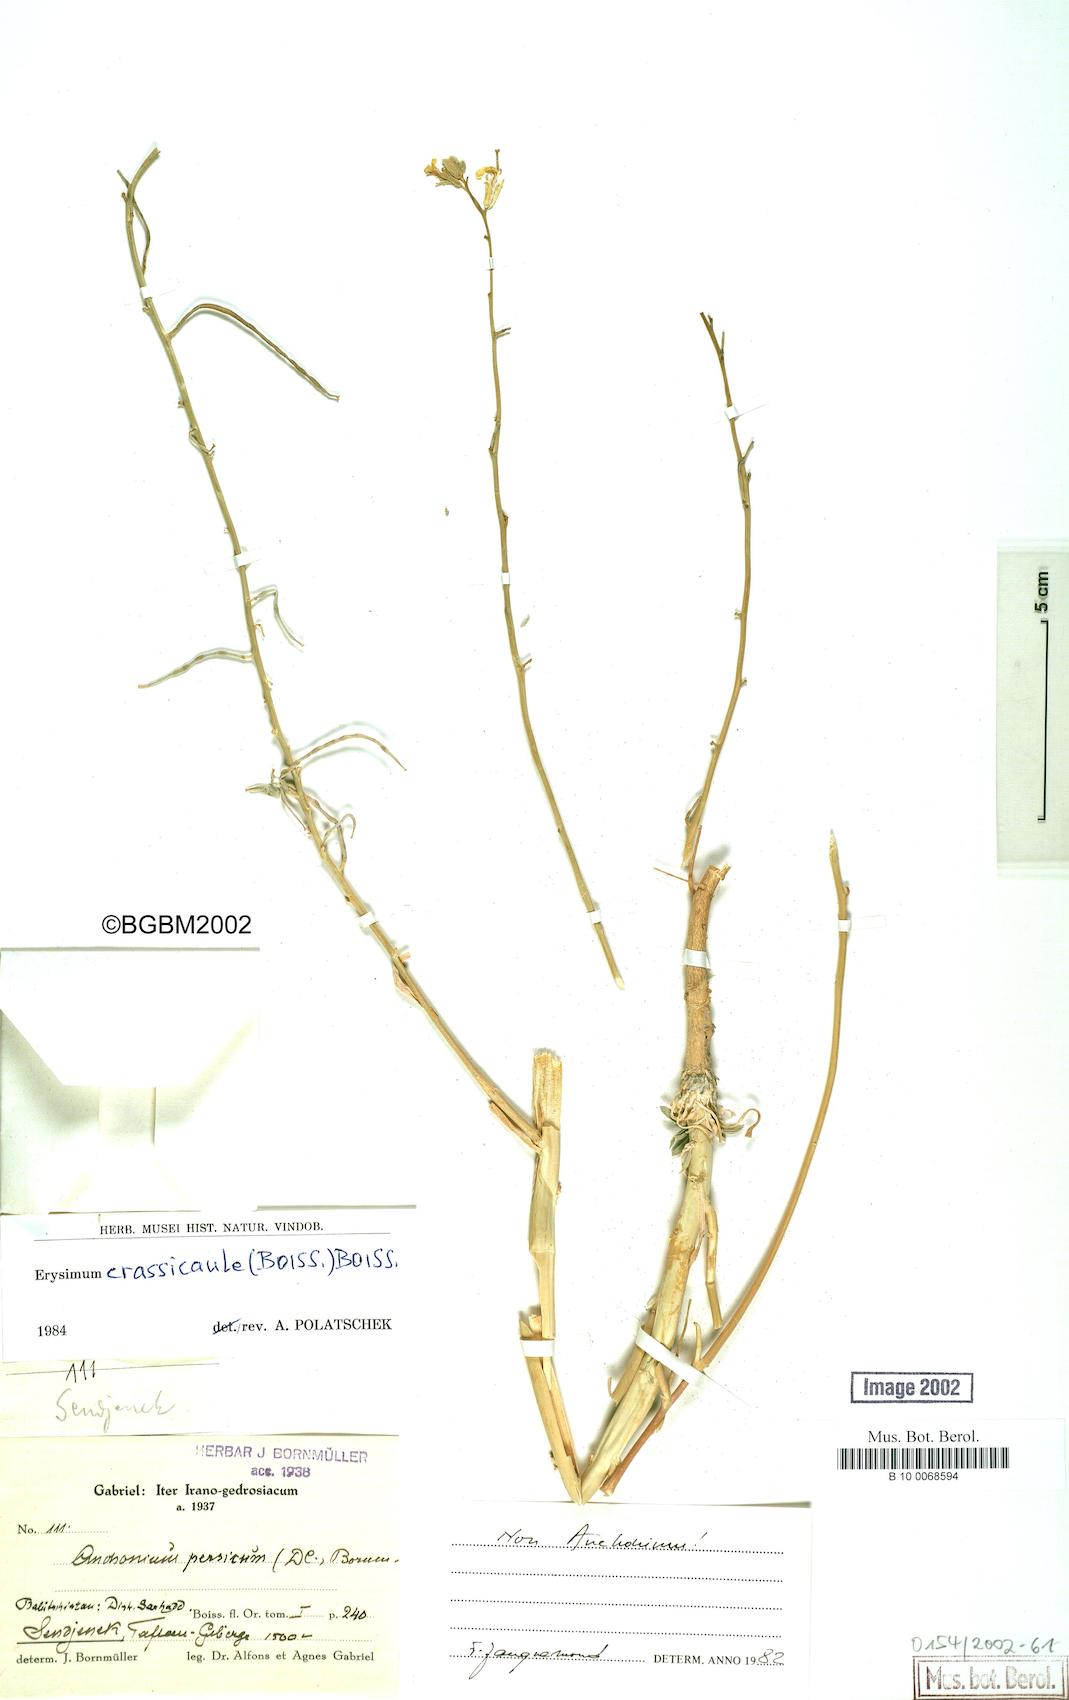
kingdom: Plantae
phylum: Tracheophyta
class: Magnoliopsida
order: Brassicales
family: Brassicaceae
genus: Erysimum
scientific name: Erysimum crassicaule
